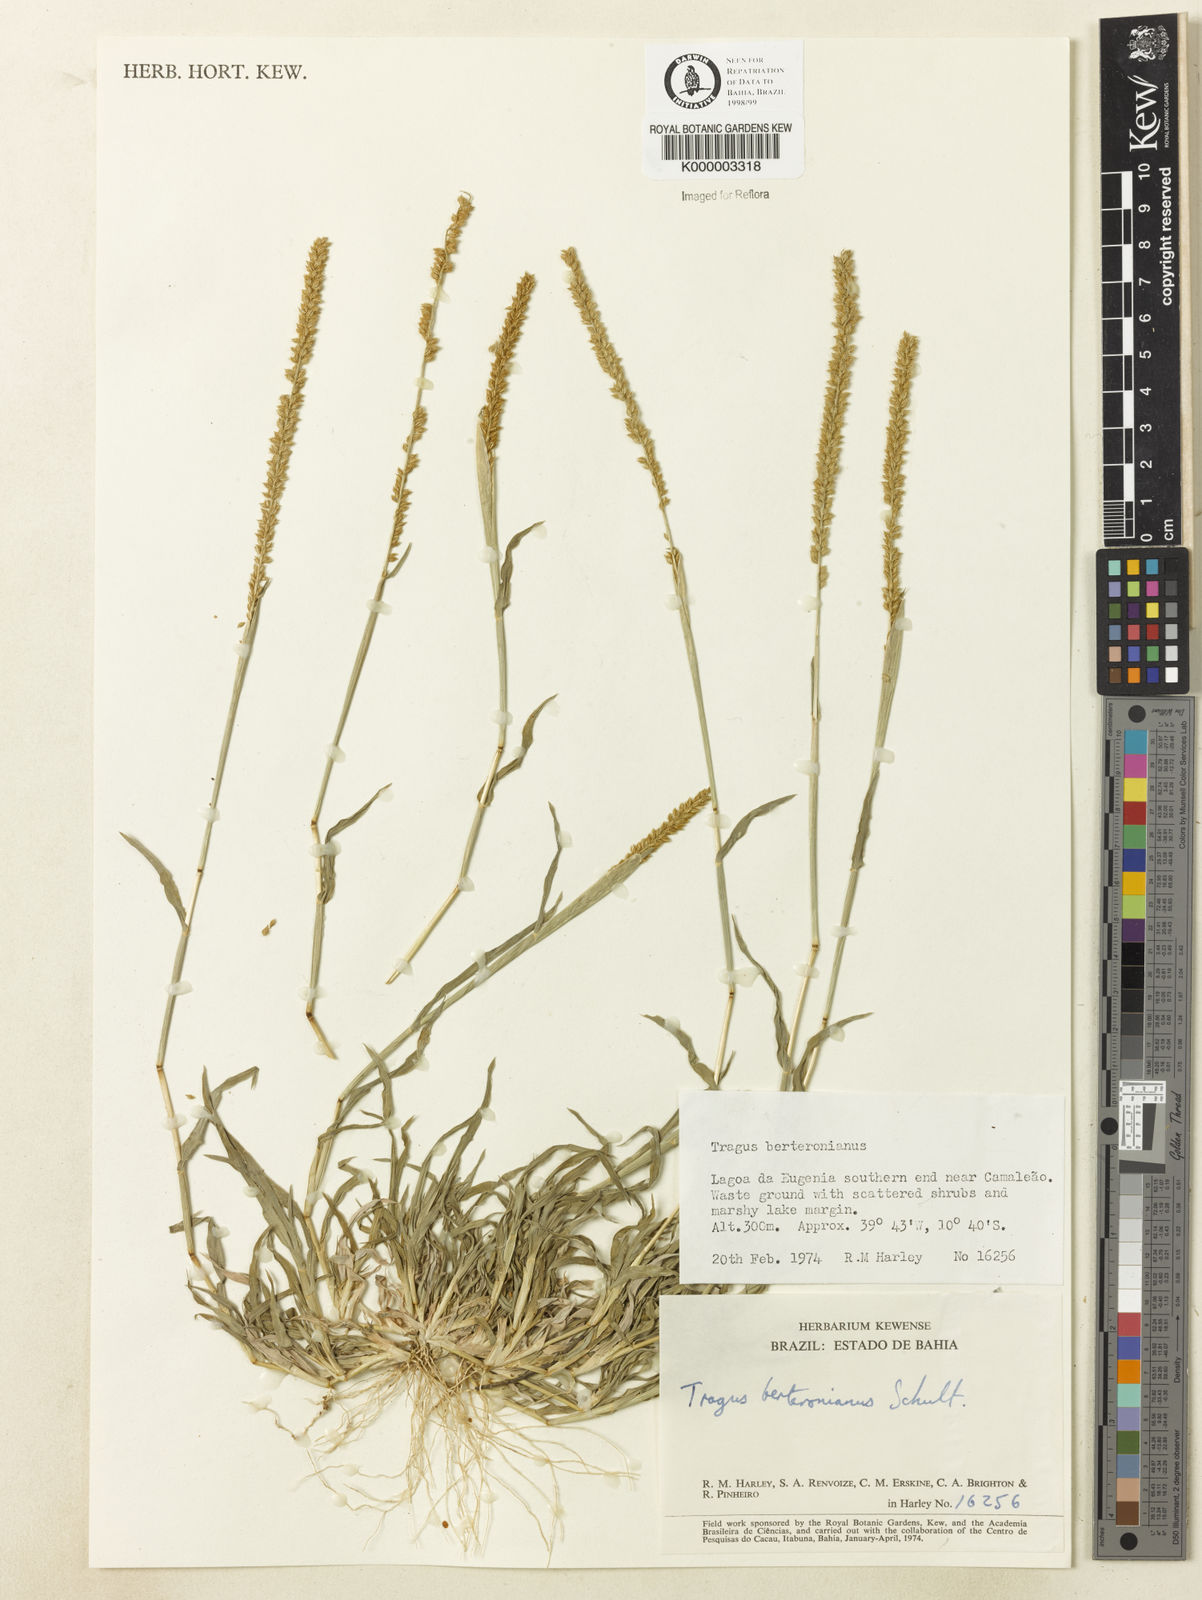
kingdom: Plantae
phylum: Tracheophyta
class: Liliopsida
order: Poales
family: Poaceae
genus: Tragus
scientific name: Tragus berteronianus
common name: African bur-grass
